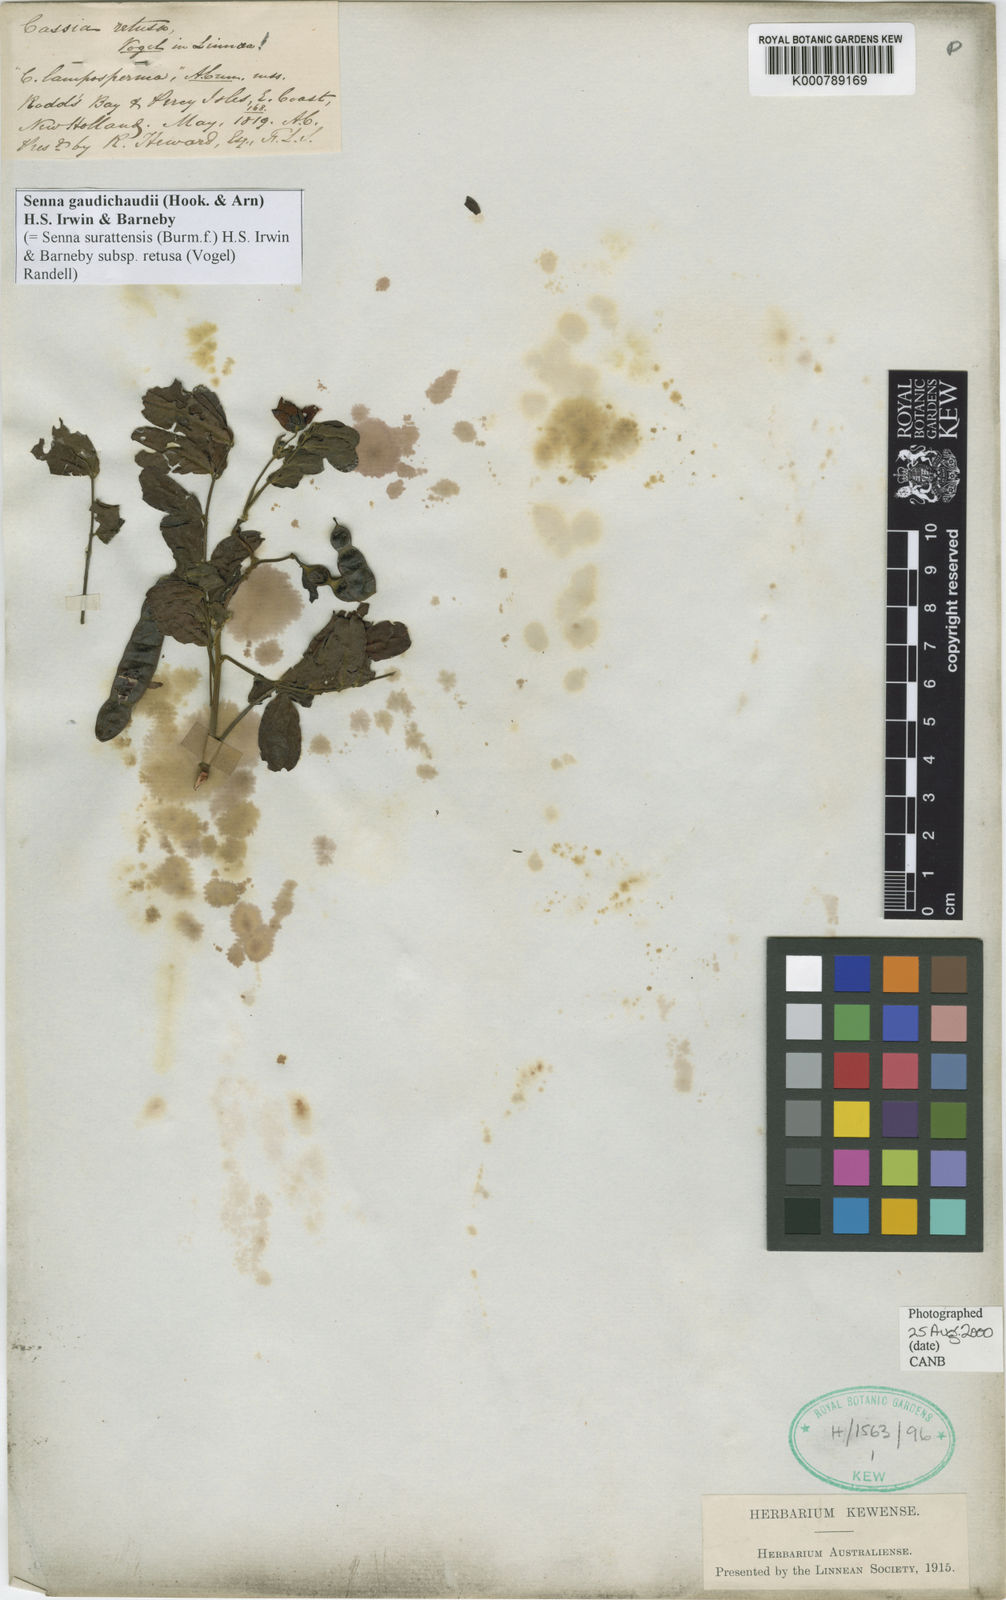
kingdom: Plantae
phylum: Tracheophyta
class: Magnoliopsida
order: Fabales
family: Fabaceae
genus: Senna
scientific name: Senna gaudichaudii
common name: Climbing cassia
